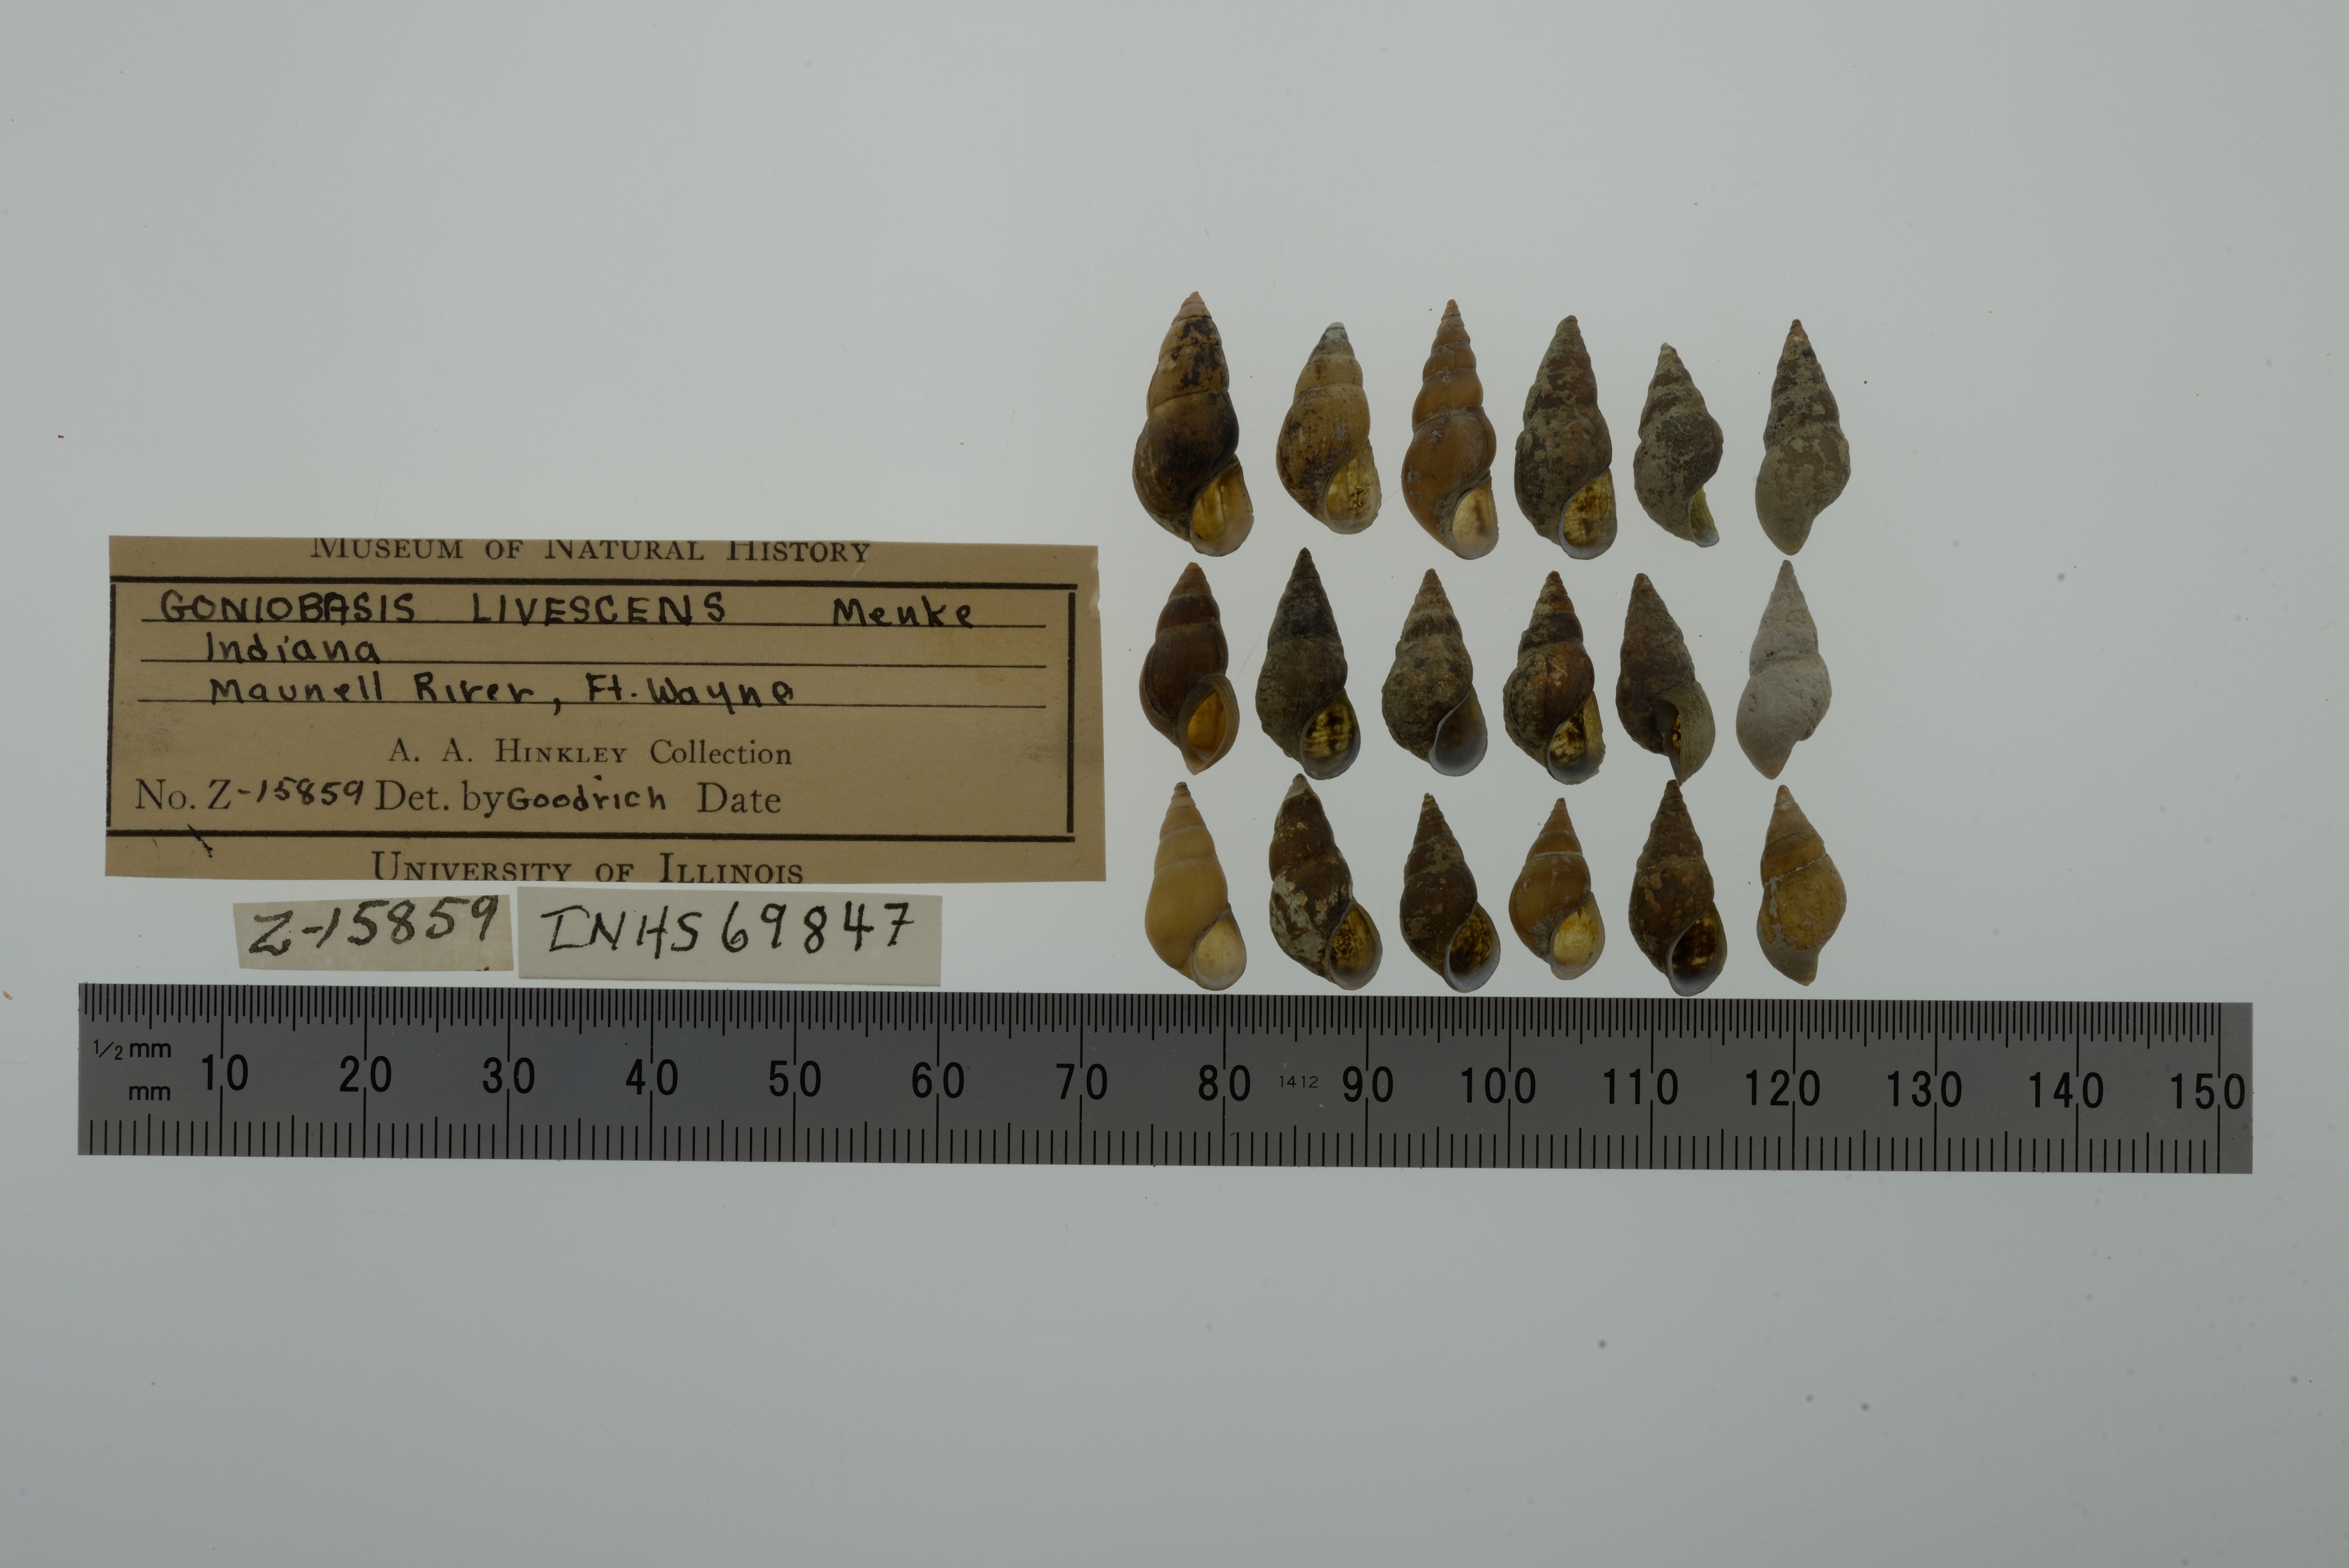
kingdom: Animalia
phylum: Mollusca
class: Gastropoda
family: Pleuroceridae
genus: Elimia
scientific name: Elimia livescens
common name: Liver elimia
